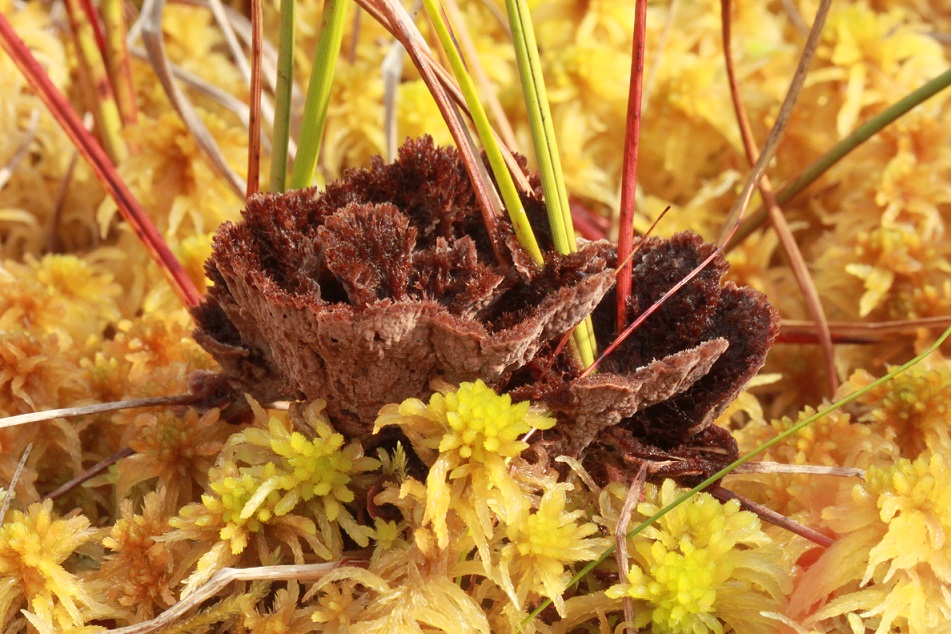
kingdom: Fungi
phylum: Basidiomycota
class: Agaricomycetes
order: Thelephorales
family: Thelephoraceae
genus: Thelephora
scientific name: Thelephora terrestris
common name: fliget frynsesvamp
